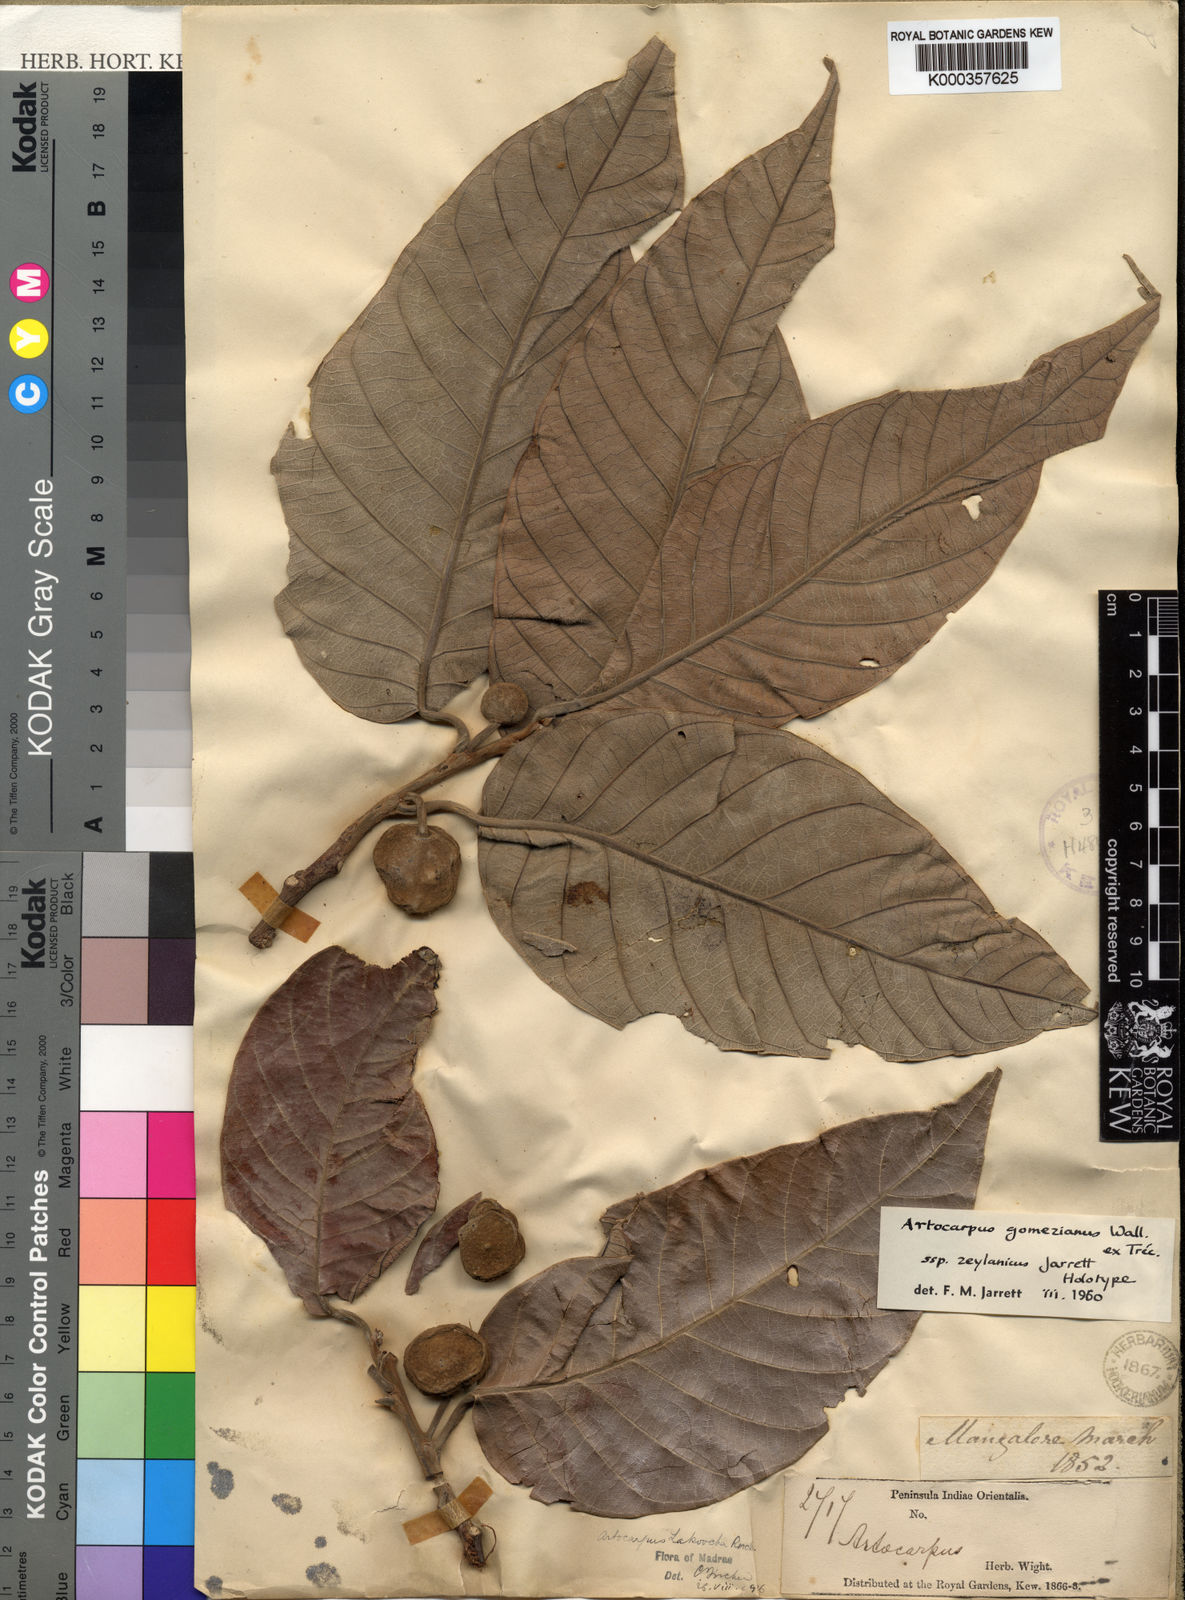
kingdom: Plantae
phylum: Tracheophyta
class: Magnoliopsida
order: Rosales
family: Moraceae
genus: Artocarpus
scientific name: Artocarpus
